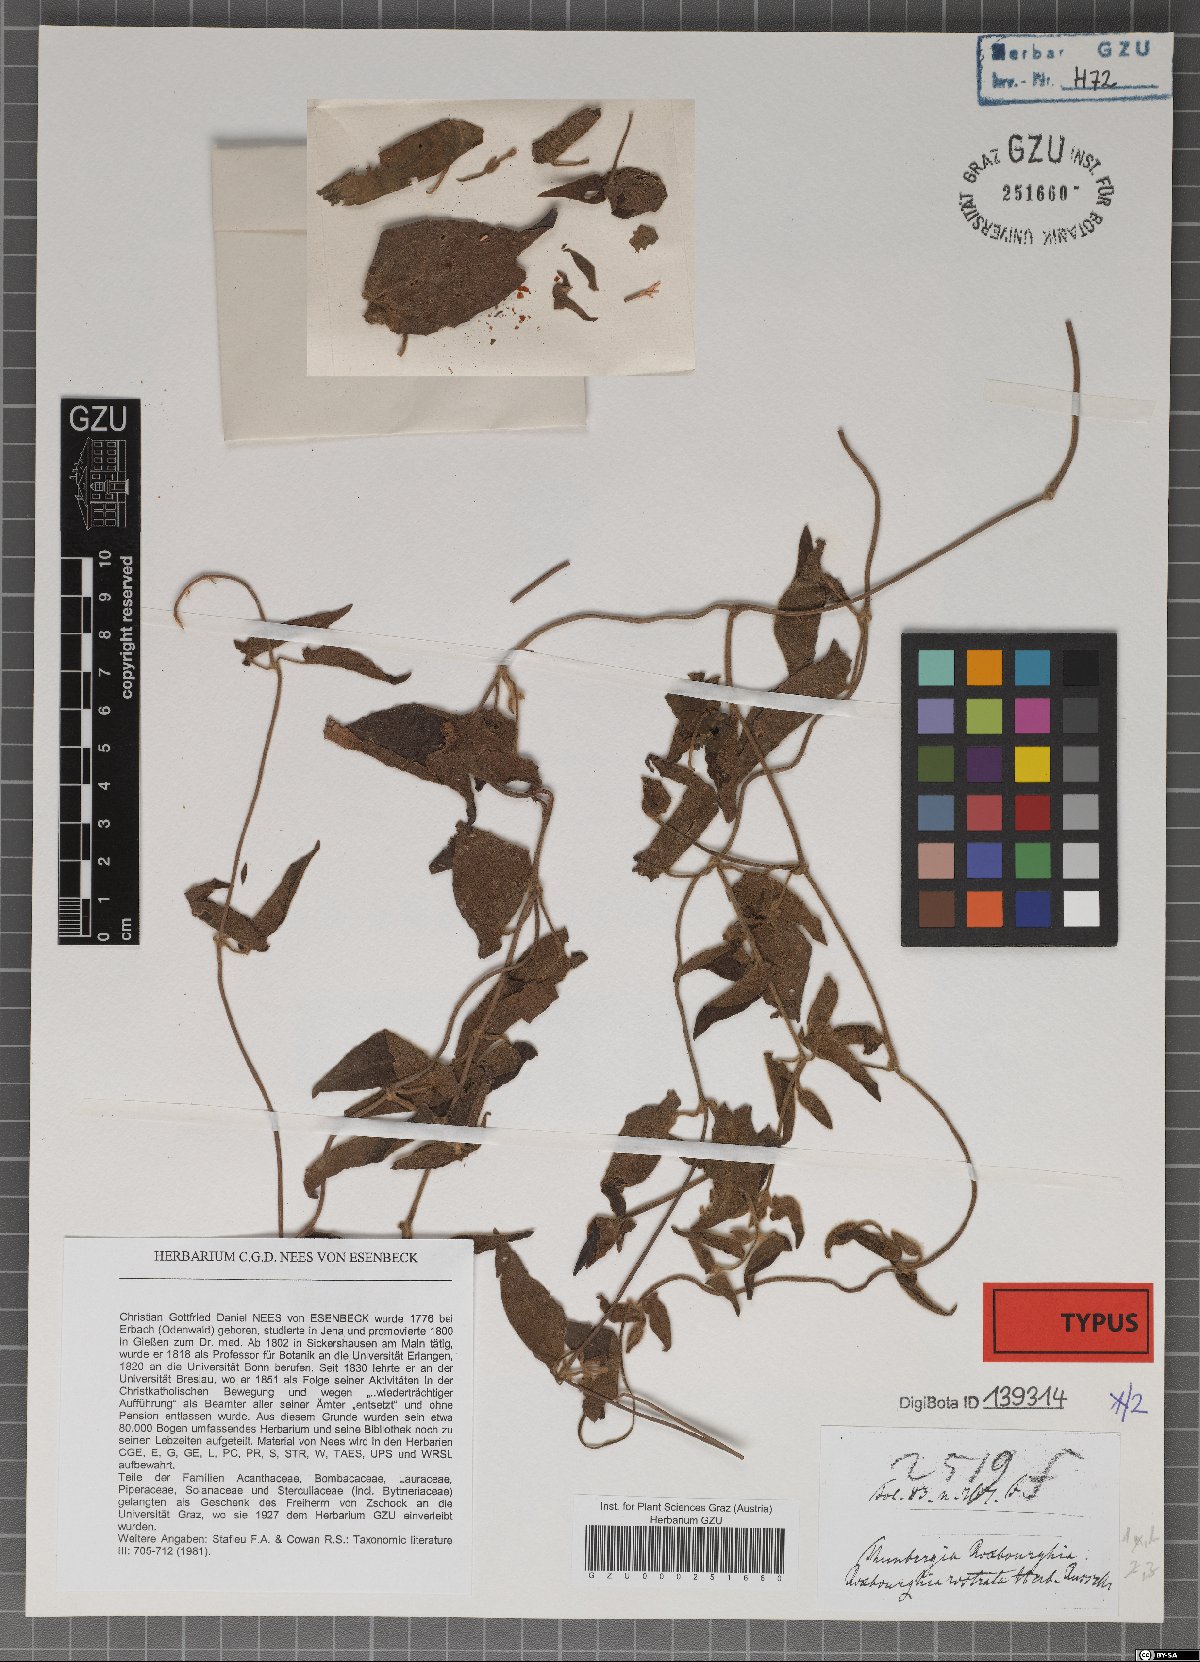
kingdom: Plantae
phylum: Tracheophyta
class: Magnoliopsida
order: Lamiales
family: Acanthaceae
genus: Thunbergia
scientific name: Thunbergia fragrans
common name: Whitelady
